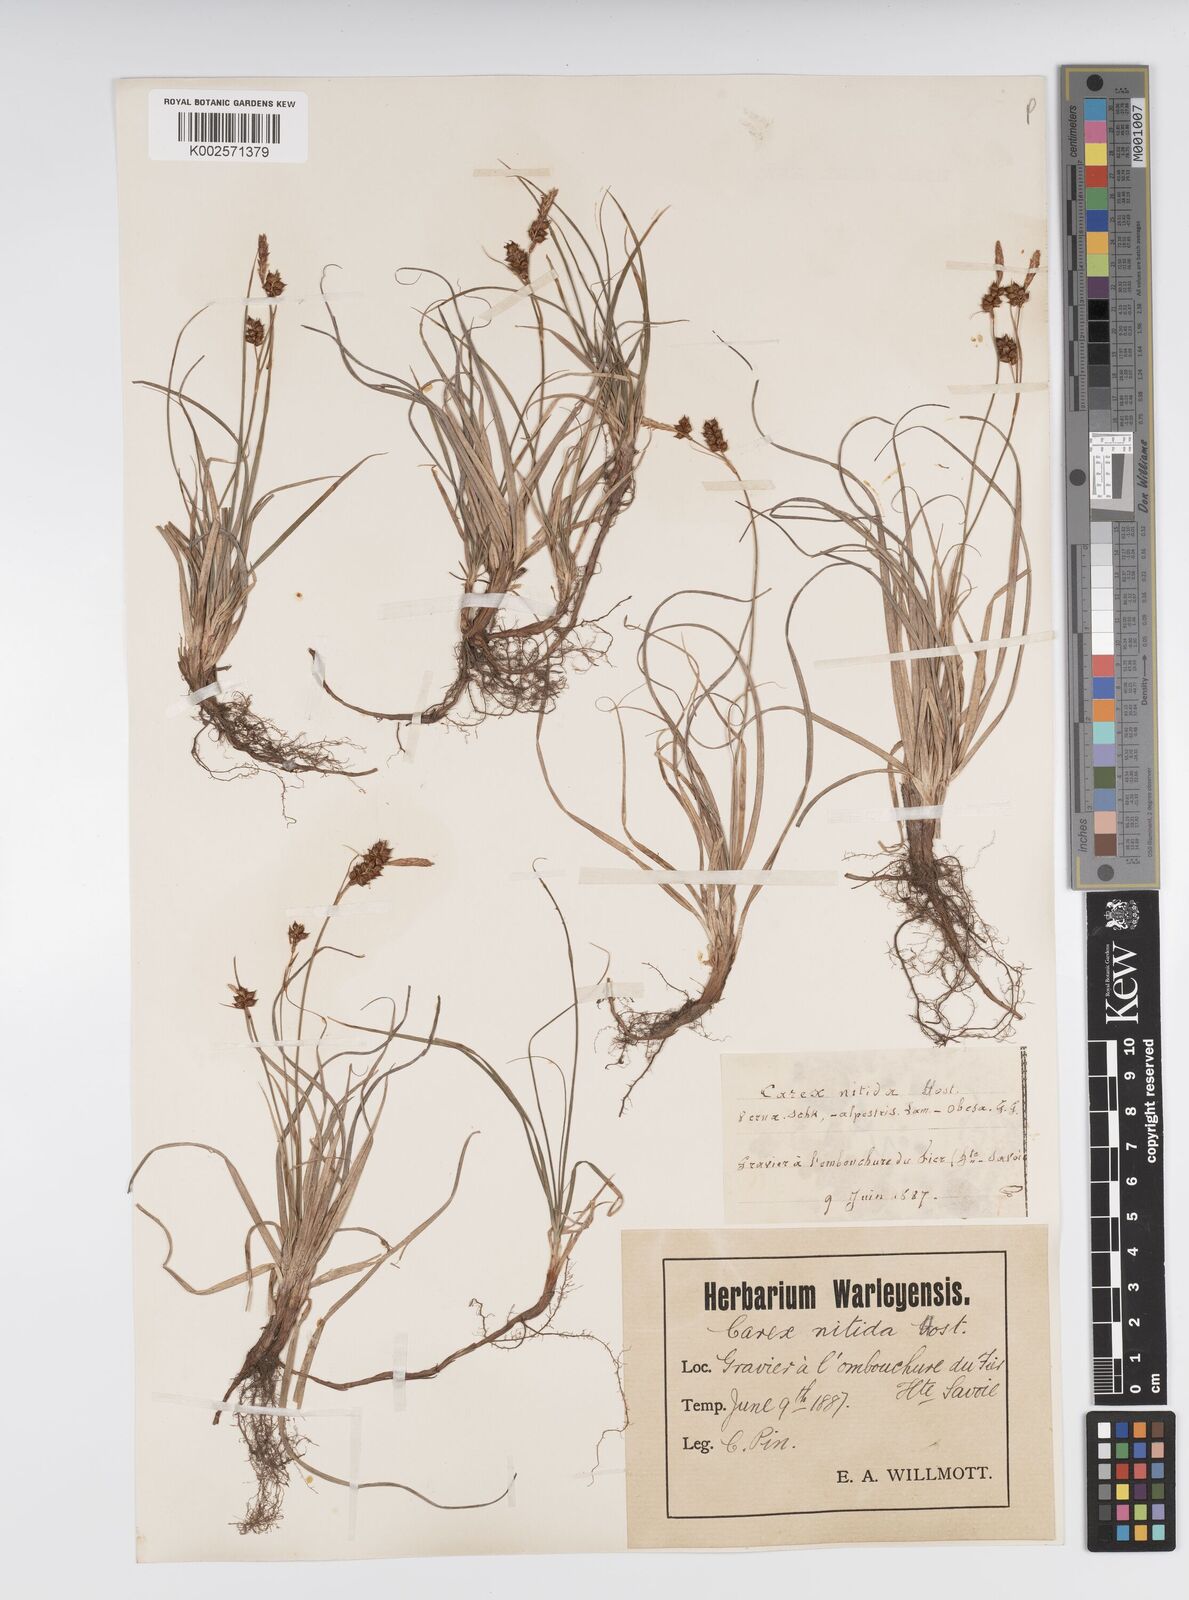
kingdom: Plantae
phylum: Tracheophyta
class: Liliopsida
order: Poales
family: Cyperaceae
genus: Carex
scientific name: Carex liparocarpos
